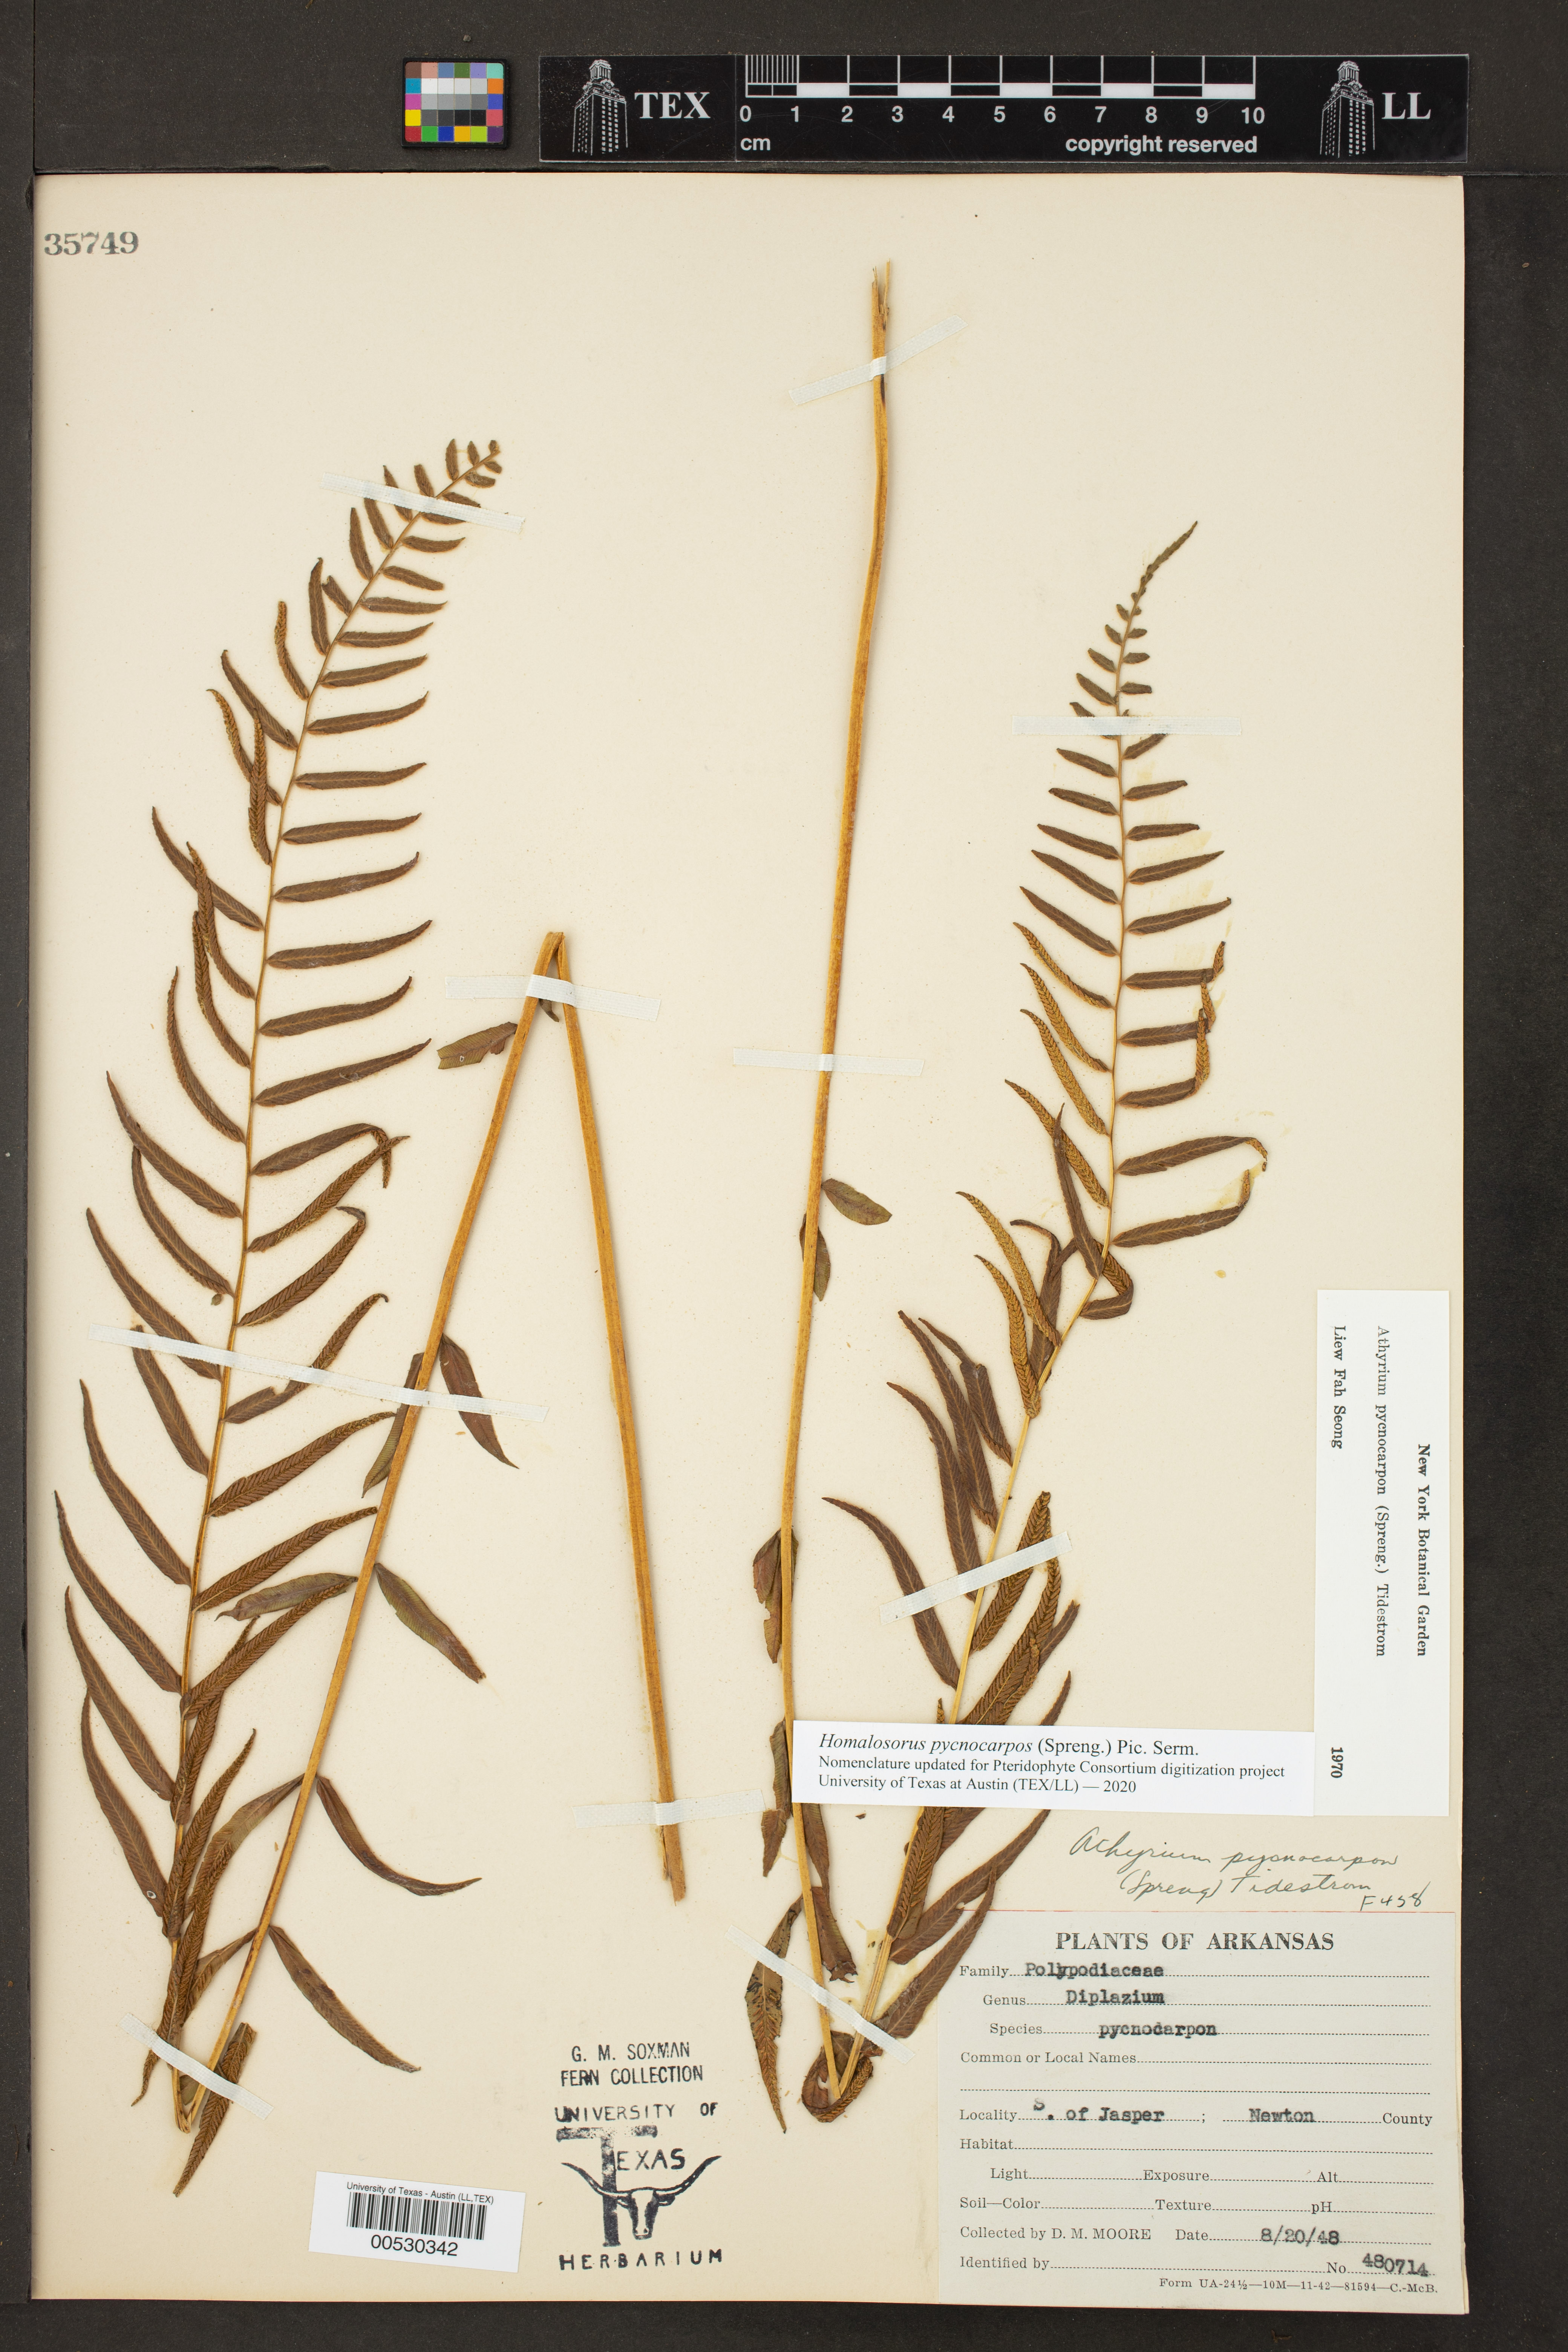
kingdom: Plantae
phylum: Tracheophyta
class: Polypodiopsida
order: Polypodiales
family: Diplaziopsidaceae
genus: Homalosorus
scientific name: Homalosorus pycnocarpos
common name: Glade fern
